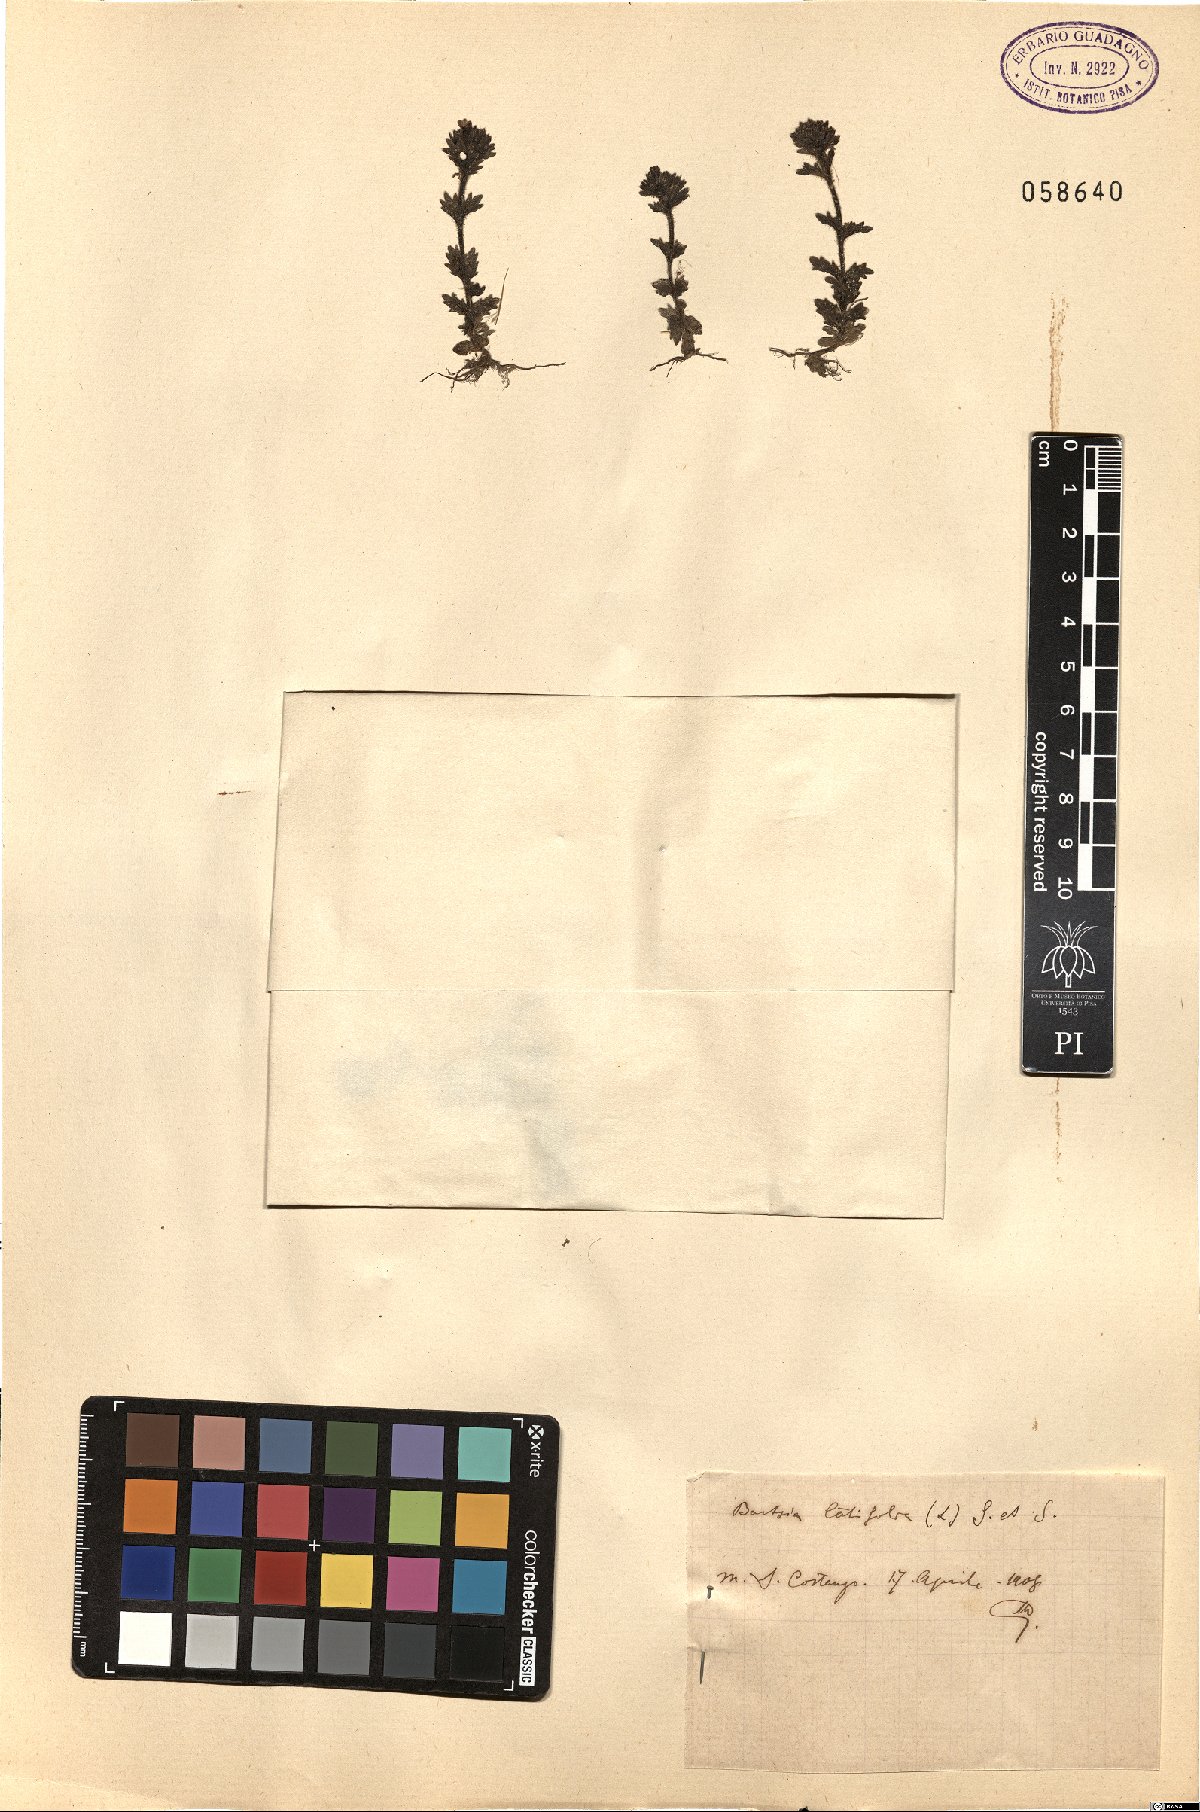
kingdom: Plantae
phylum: Tracheophyta
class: Magnoliopsida
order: Lamiales
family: Orobanchaceae
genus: Parentucellia
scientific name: Parentucellia latifolia
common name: Broadleaf glandweed
